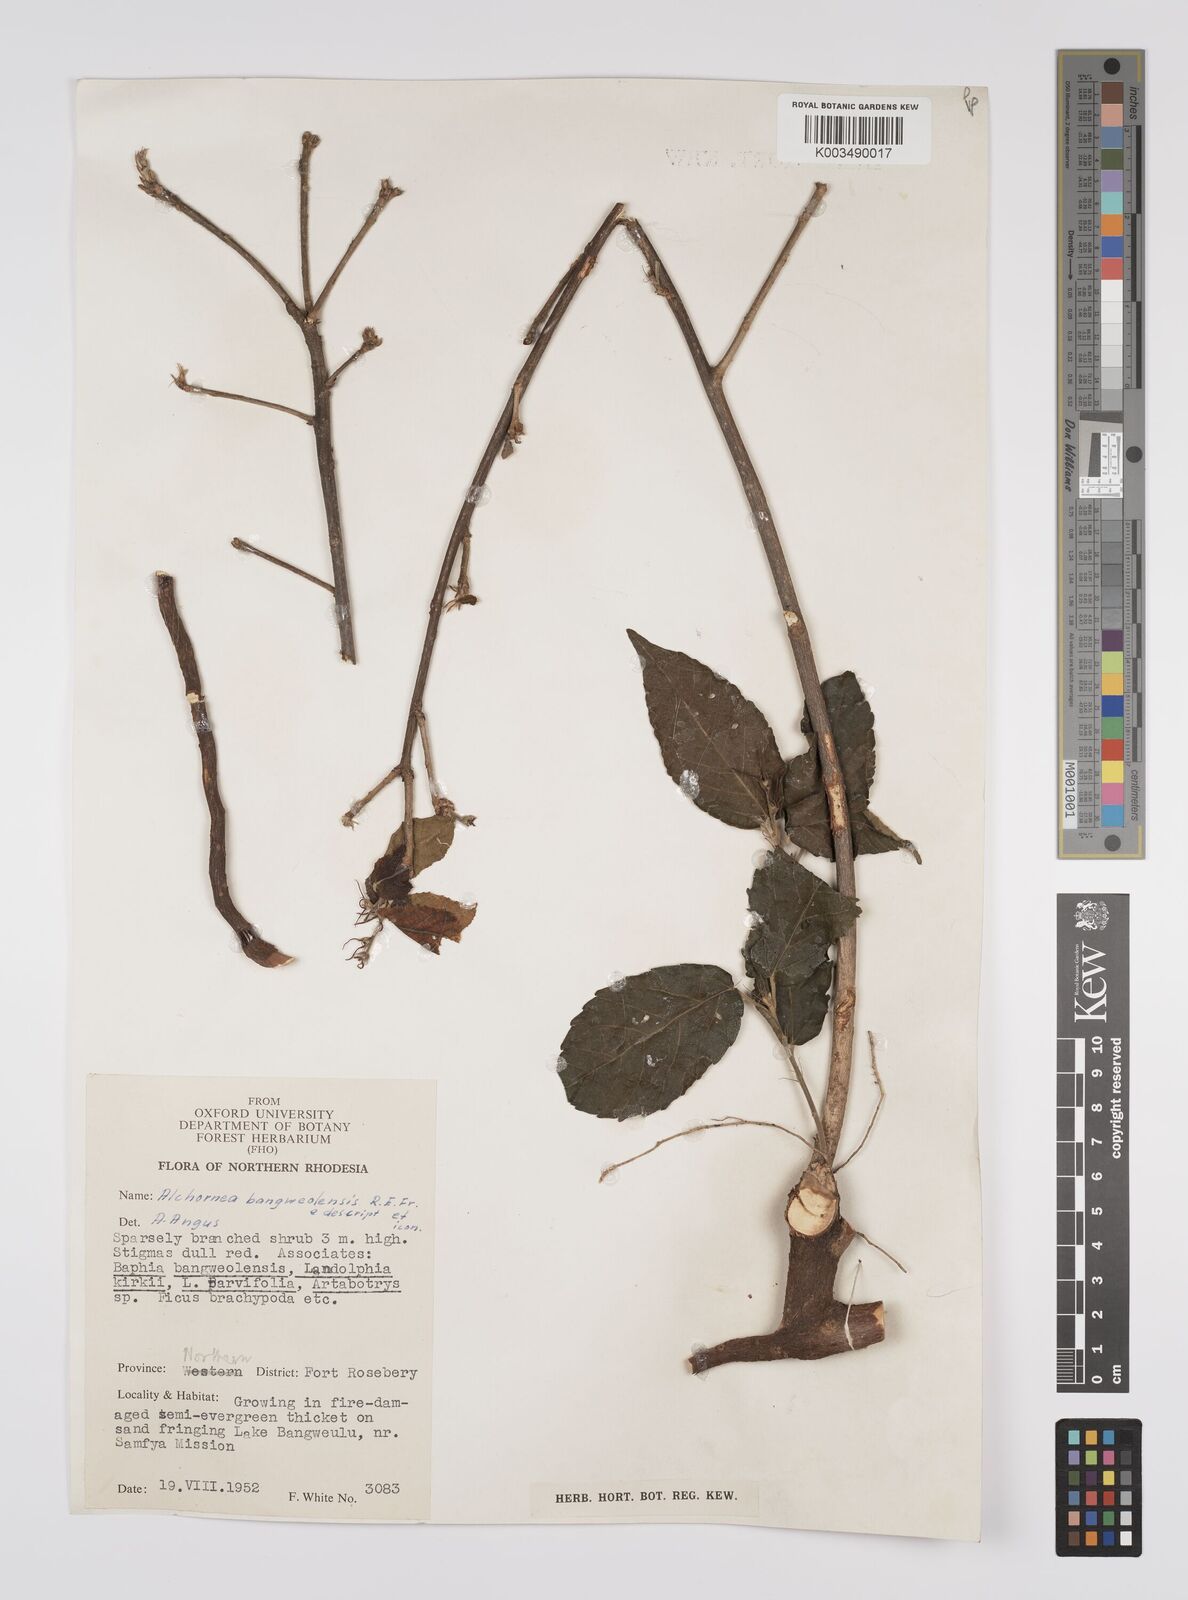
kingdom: Plantae
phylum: Tracheophyta
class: Magnoliopsida
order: Malpighiales
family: Euphorbiaceae
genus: Alchornea
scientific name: Alchornea yambuyaensis
